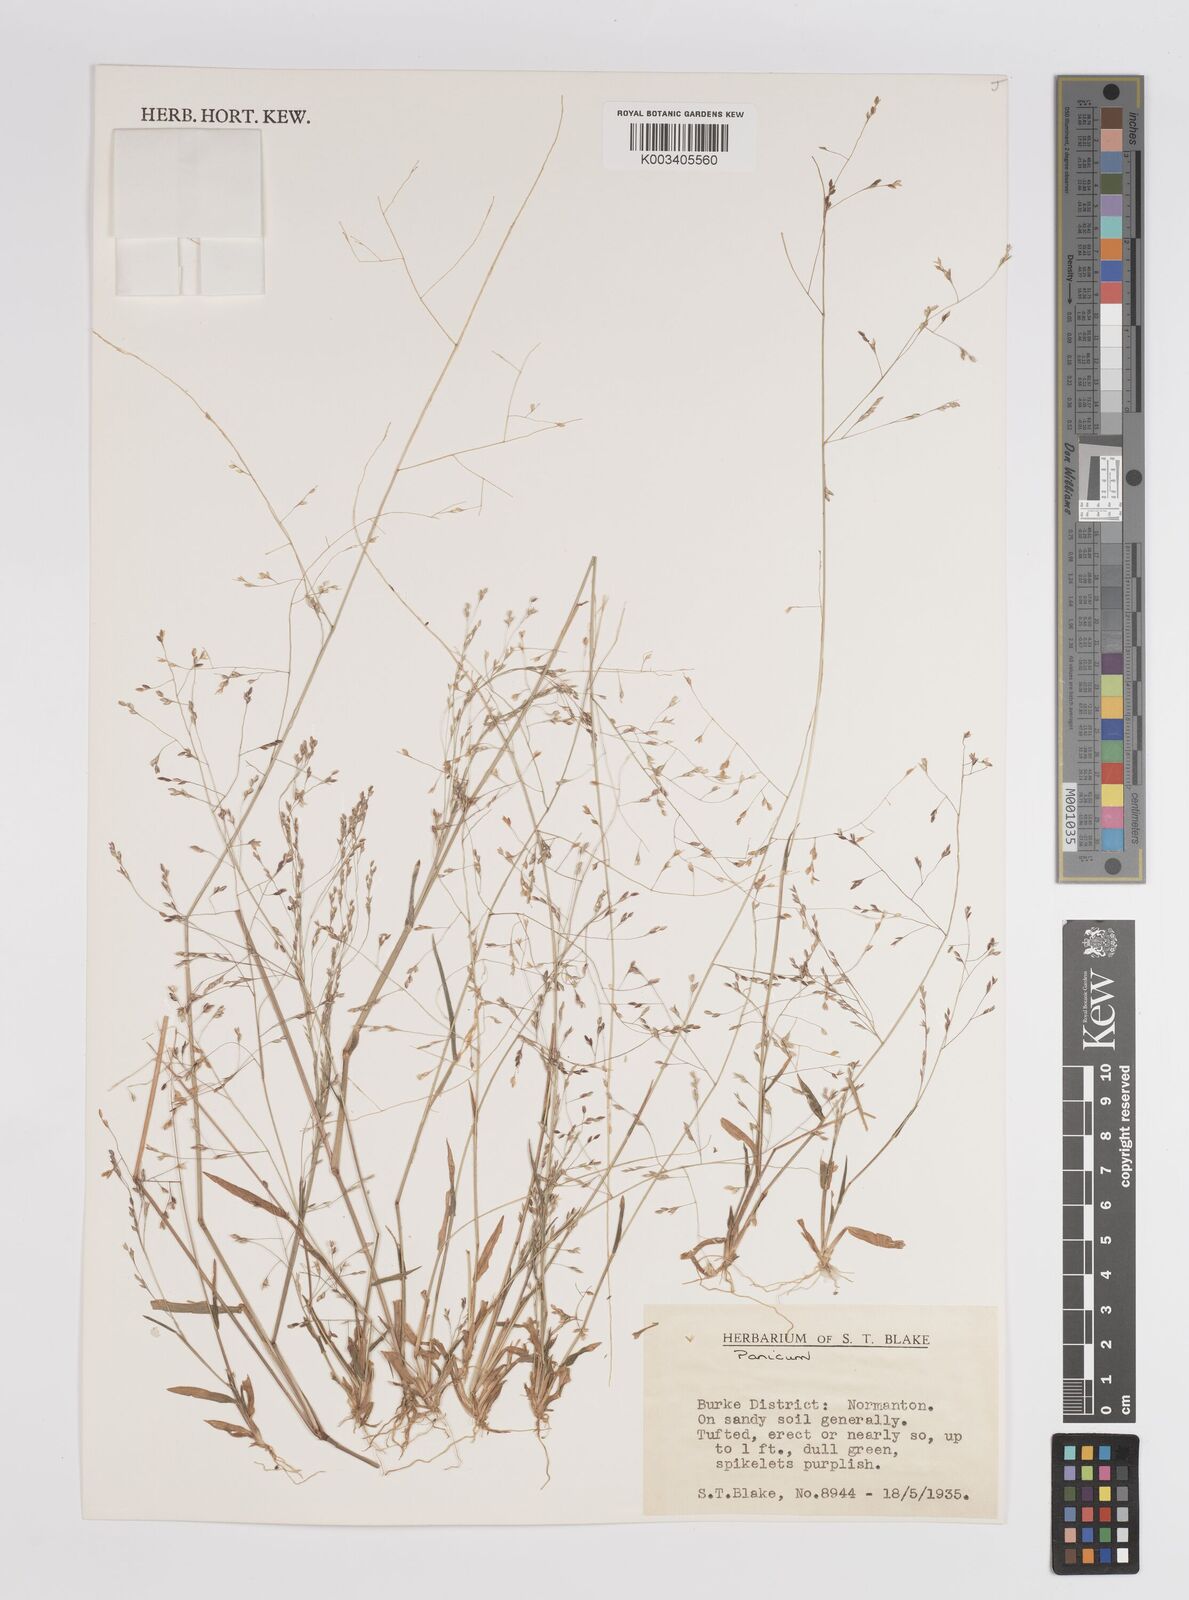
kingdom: Plantae
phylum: Tracheophyta
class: Liliopsida
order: Poales
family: Poaceae
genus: Panicum
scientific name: Panicum
